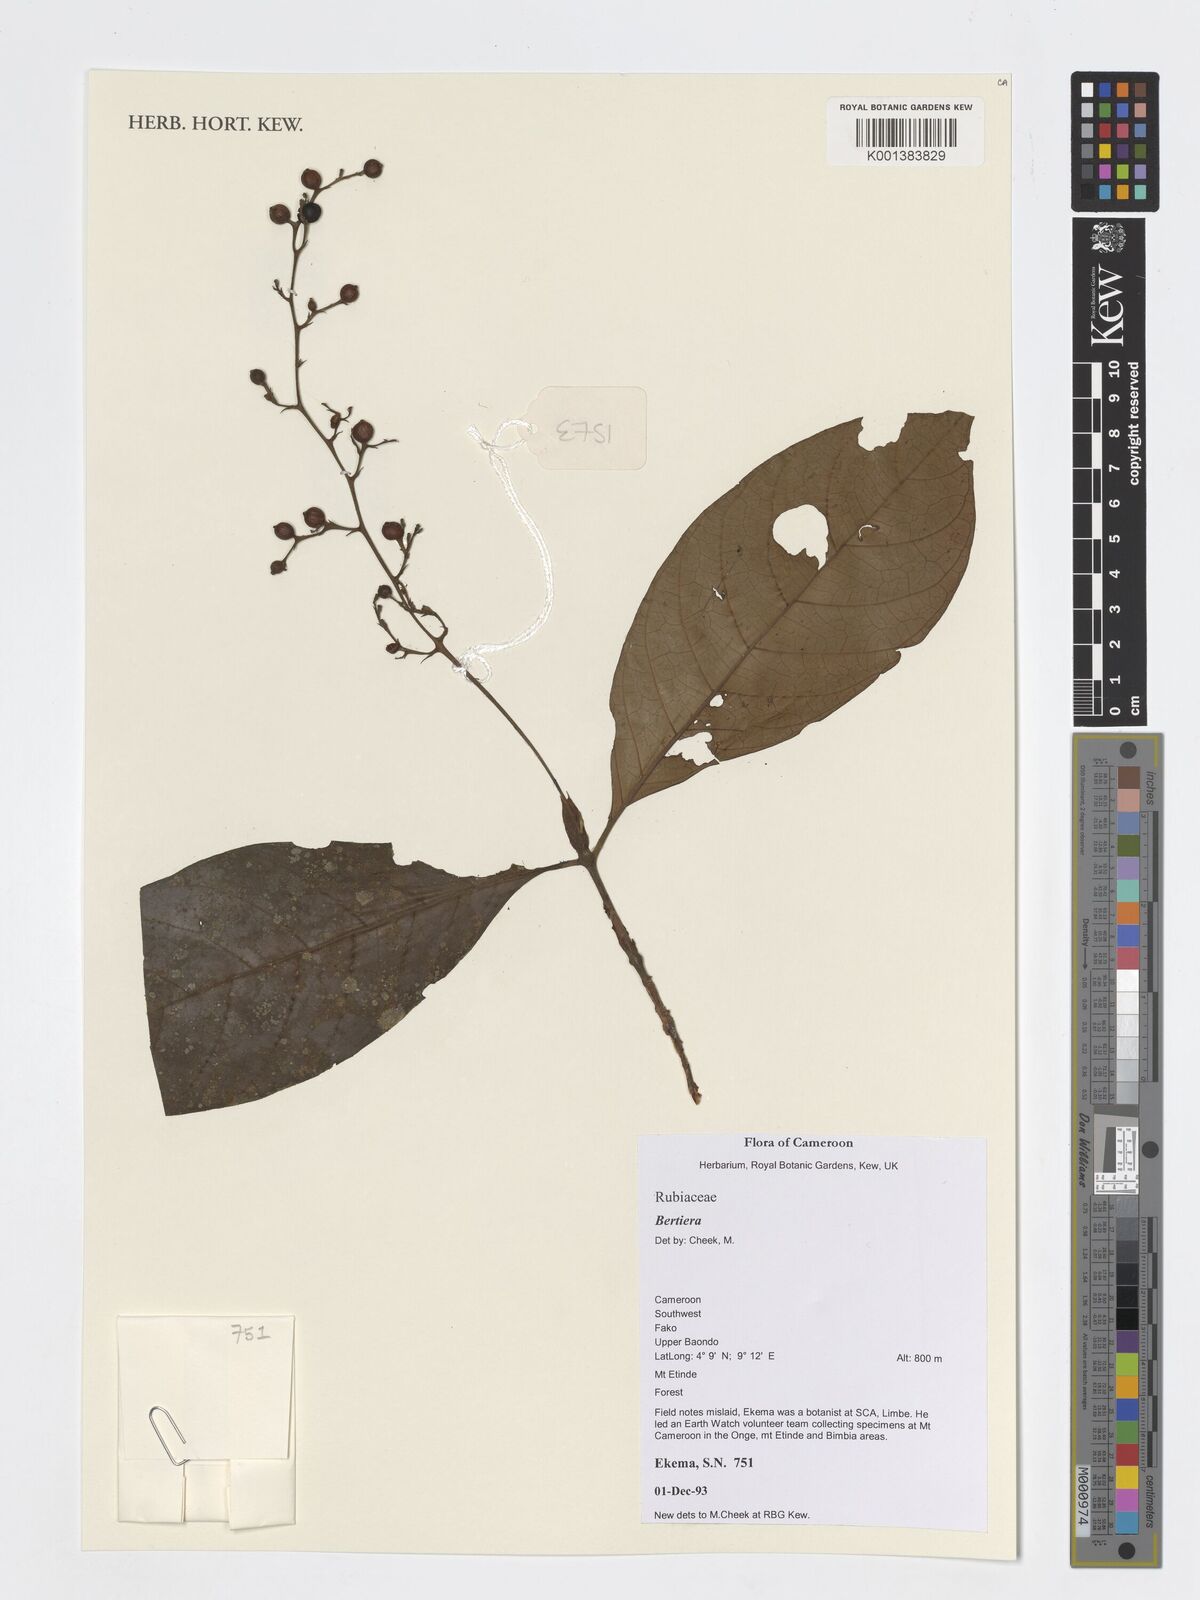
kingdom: Plantae
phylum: Tracheophyta
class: Magnoliopsida
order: Gentianales
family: Rubiaceae
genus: Bertiera
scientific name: Bertiera
